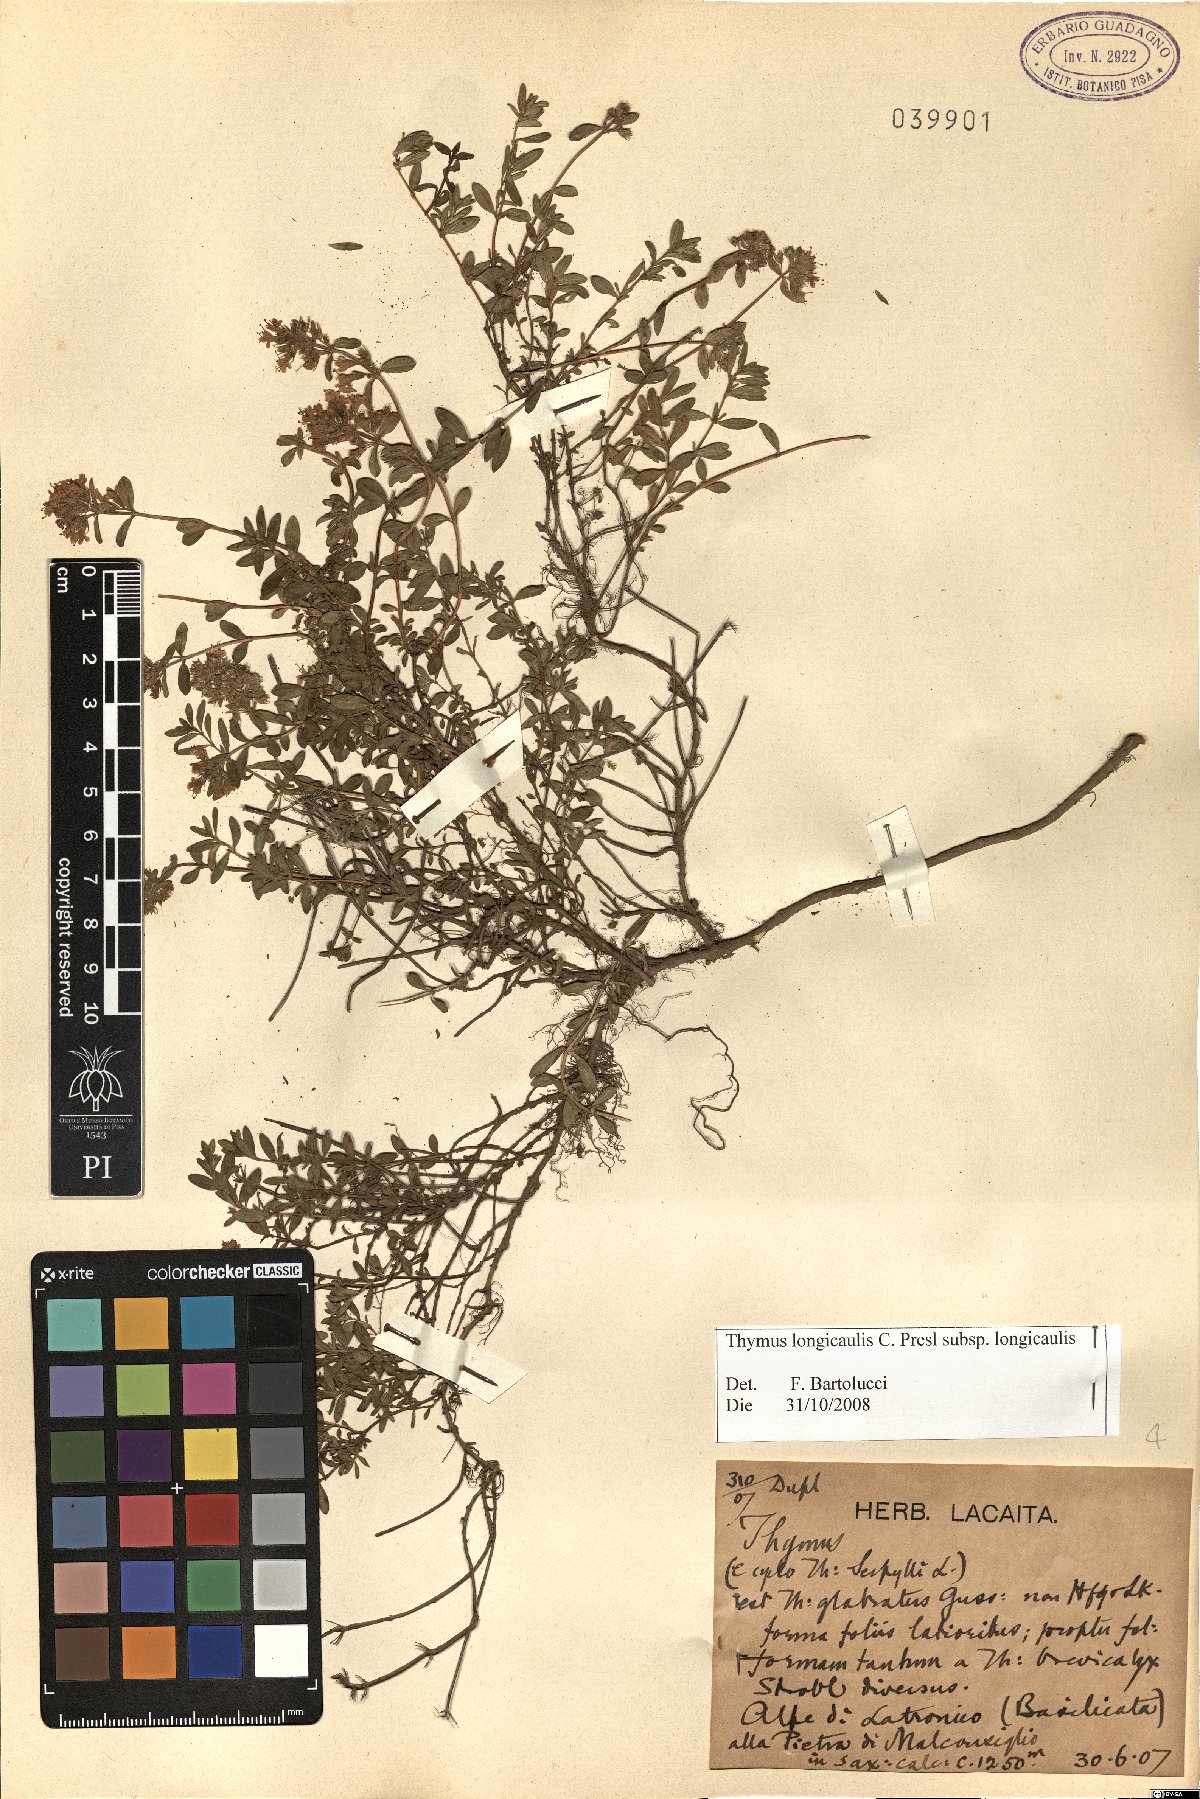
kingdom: Plantae
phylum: Tracheophyta
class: Magnoliopsida
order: Lamiales
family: Lamiaceae
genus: Thymus
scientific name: Thymus longicaulis
